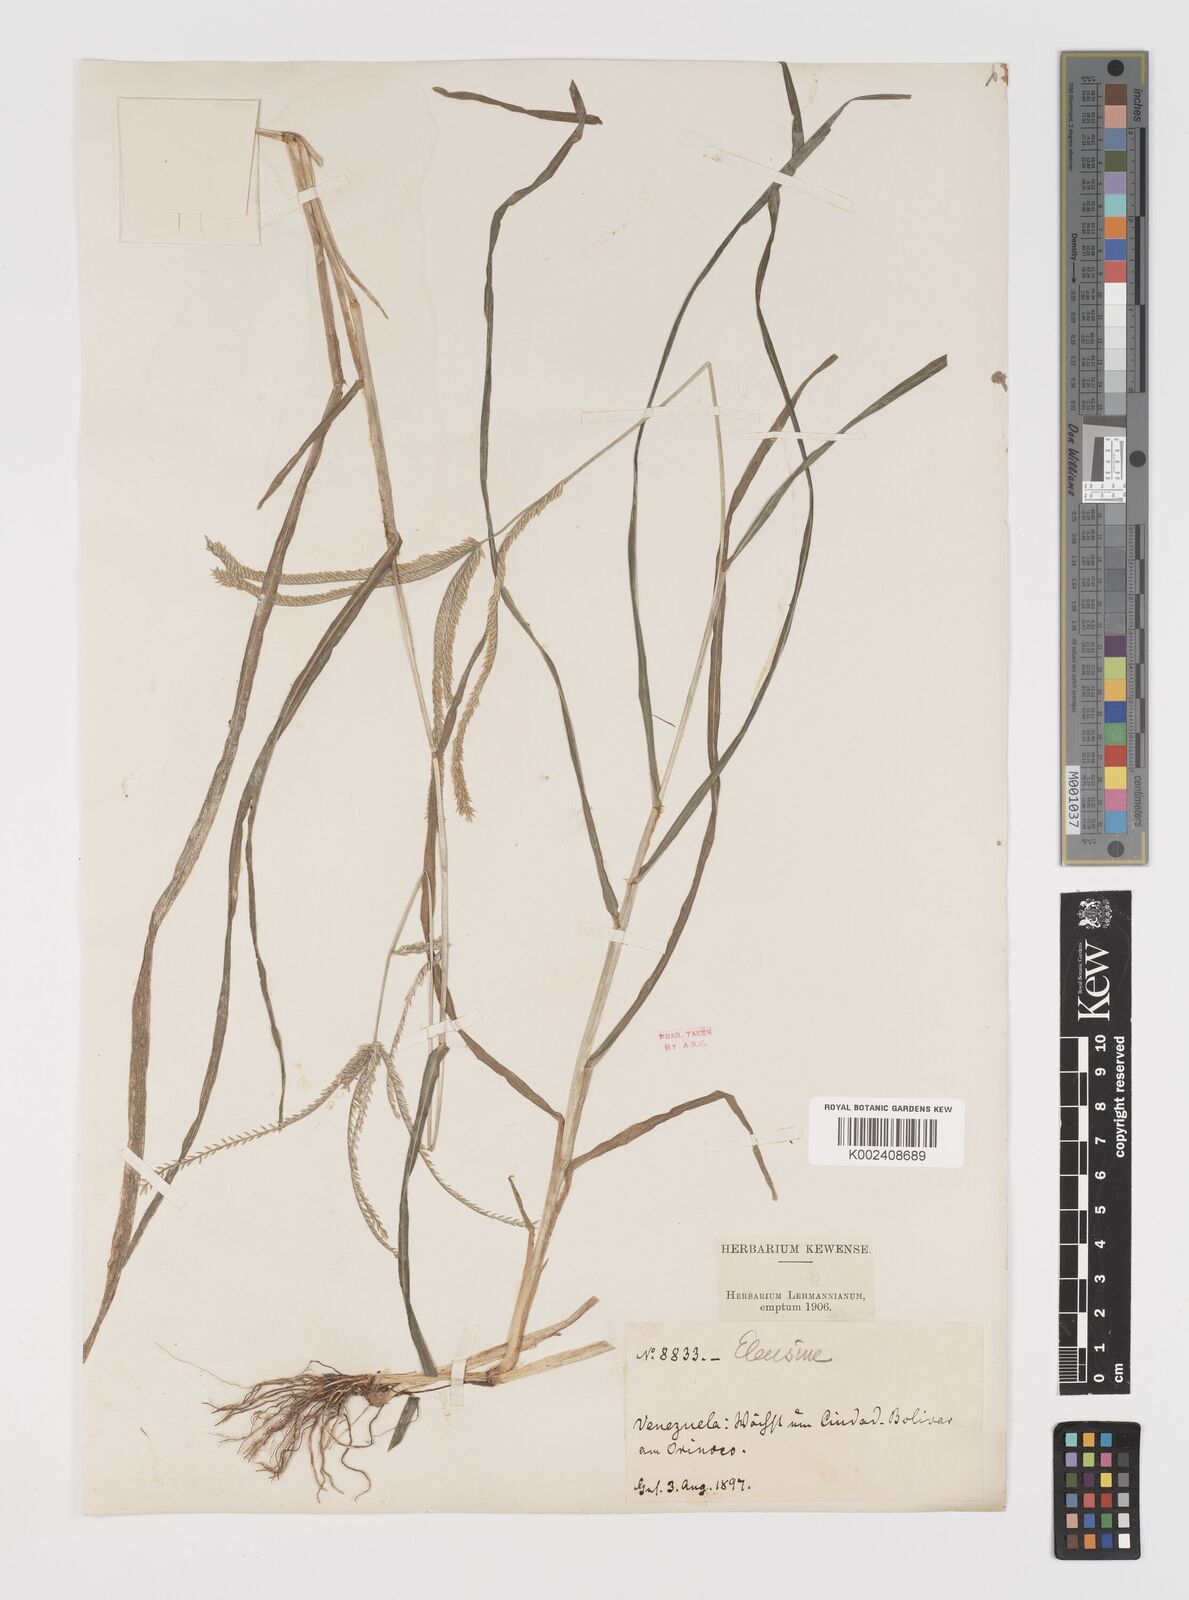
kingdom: Plantae
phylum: Tracheophyta
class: Liliopsida
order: Poales
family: Poaceae
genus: Eleusine
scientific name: Eleusine indica
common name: Yard-grass
